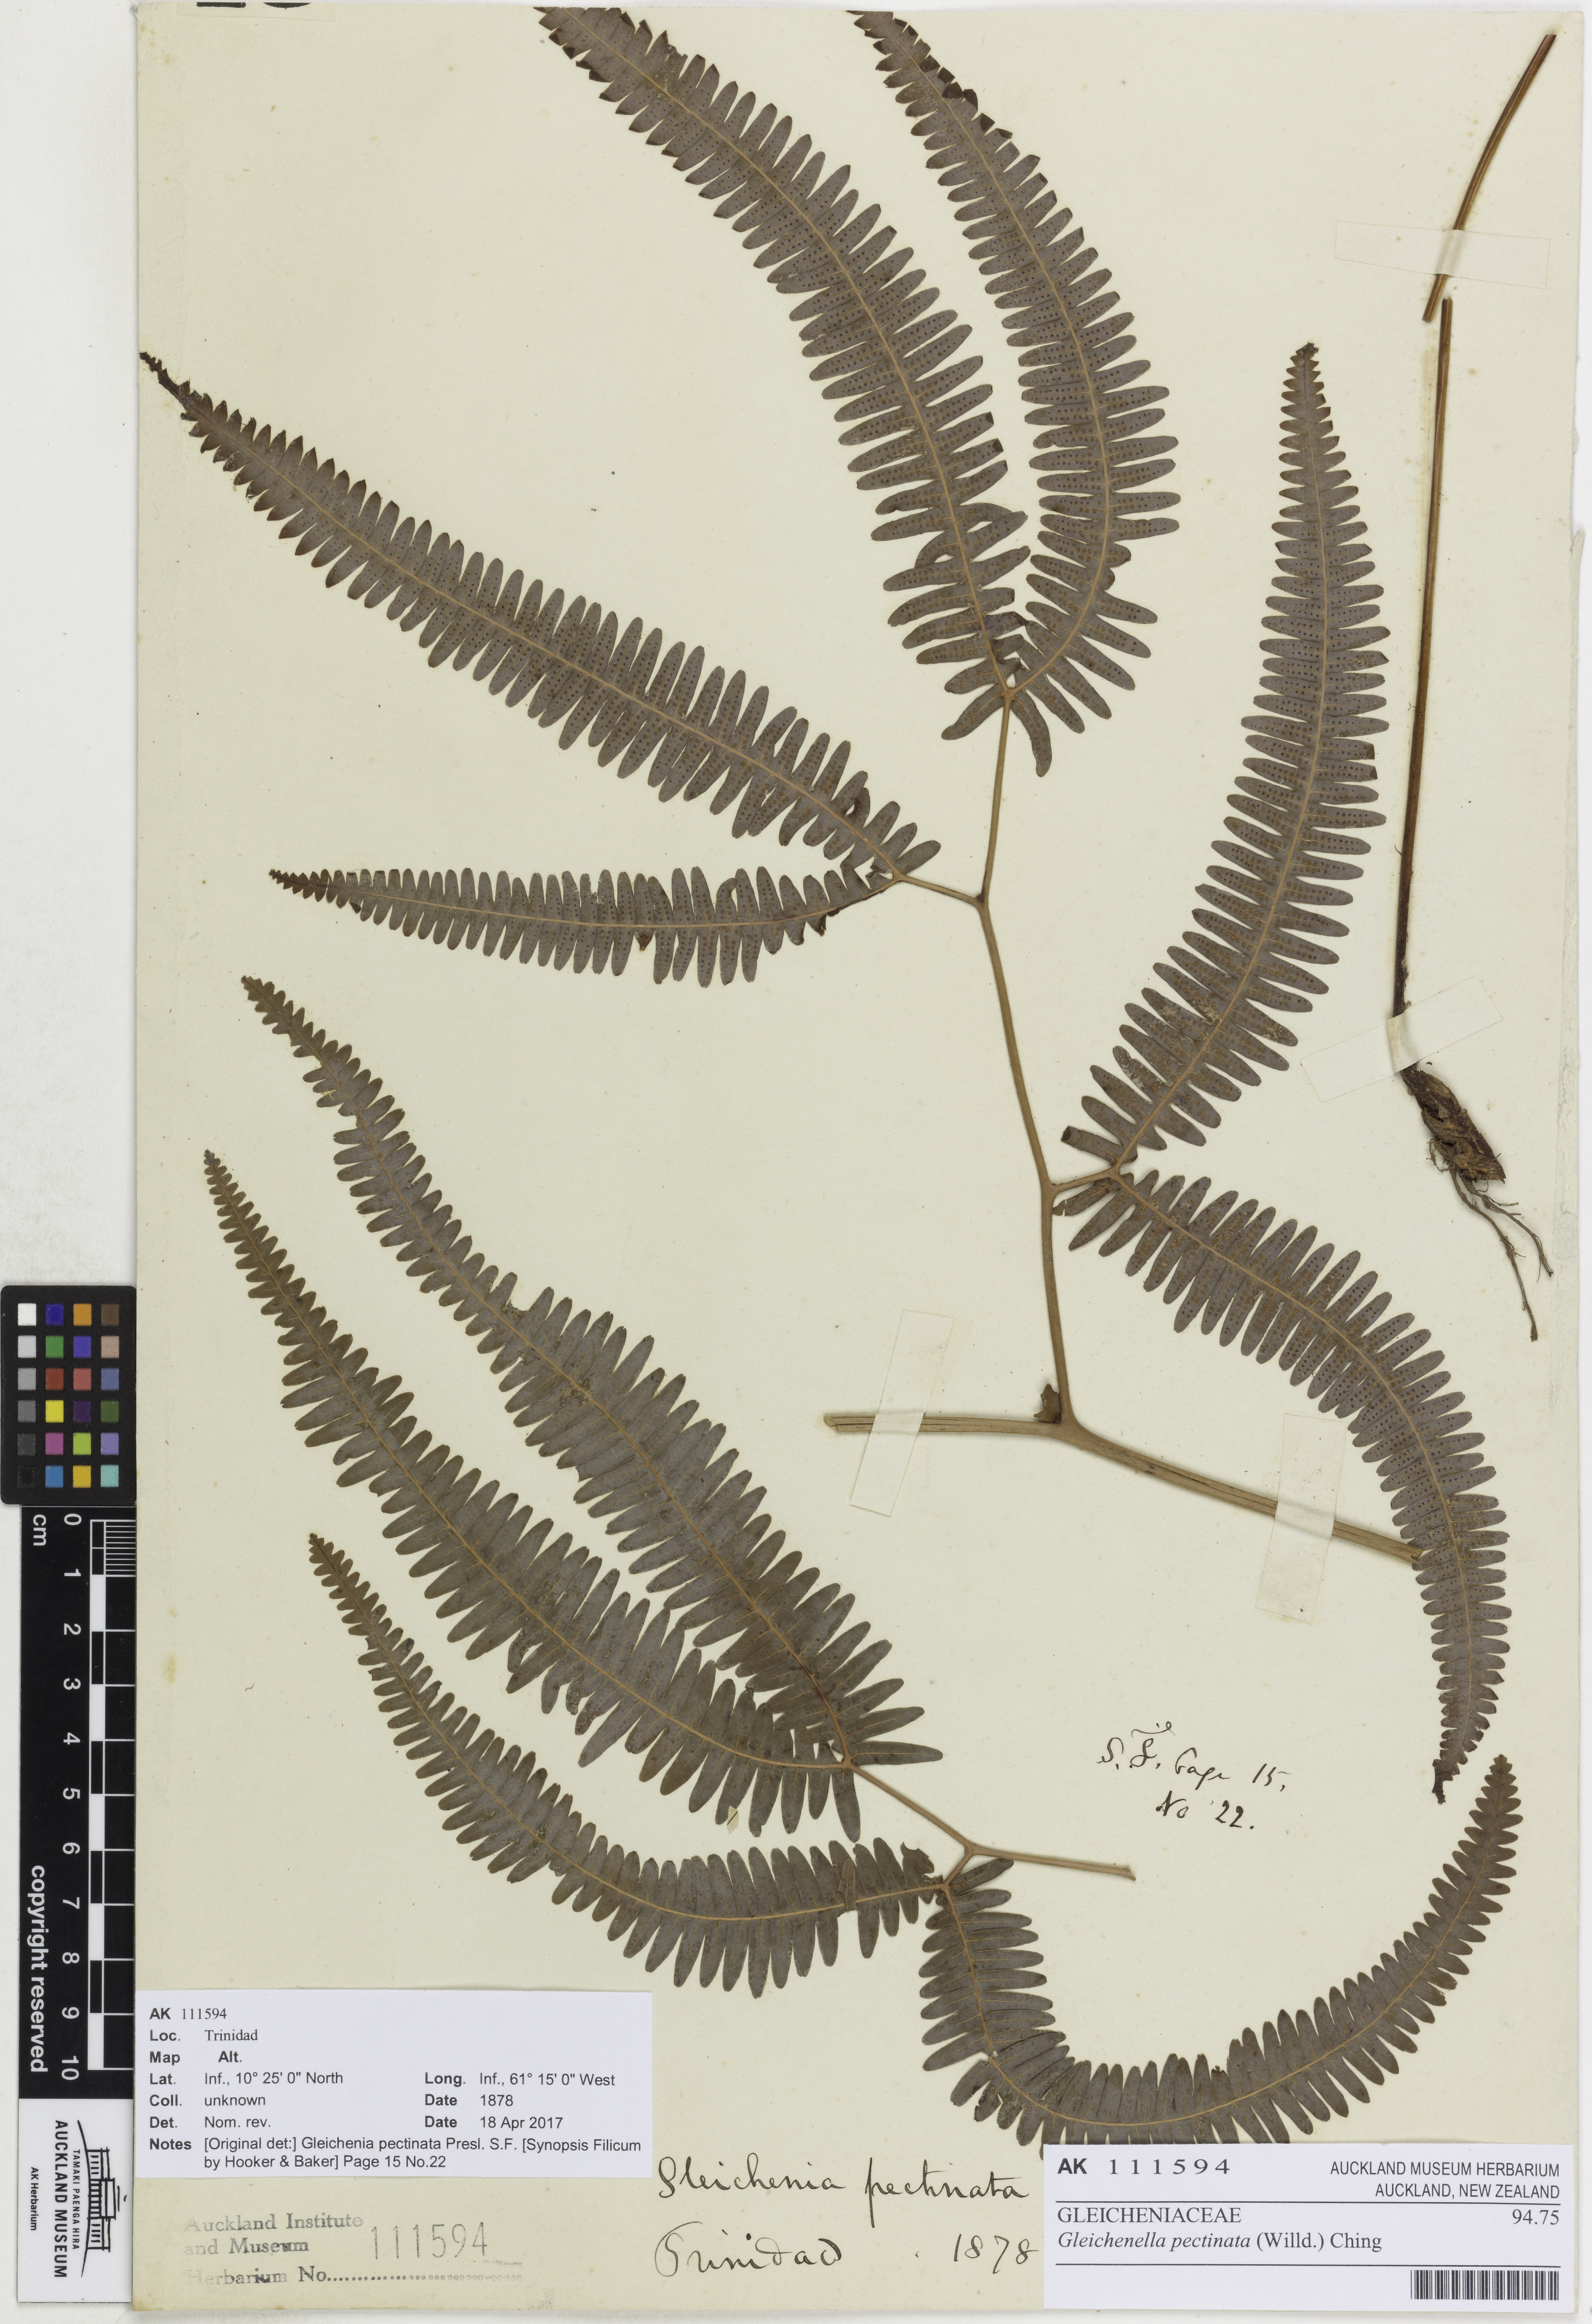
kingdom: Plantae
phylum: Tracheophyta
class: Polypodiopsida
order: Gleicheniales
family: Gleicheniaceae
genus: Gleichenella
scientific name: Gleichenella pectinata
